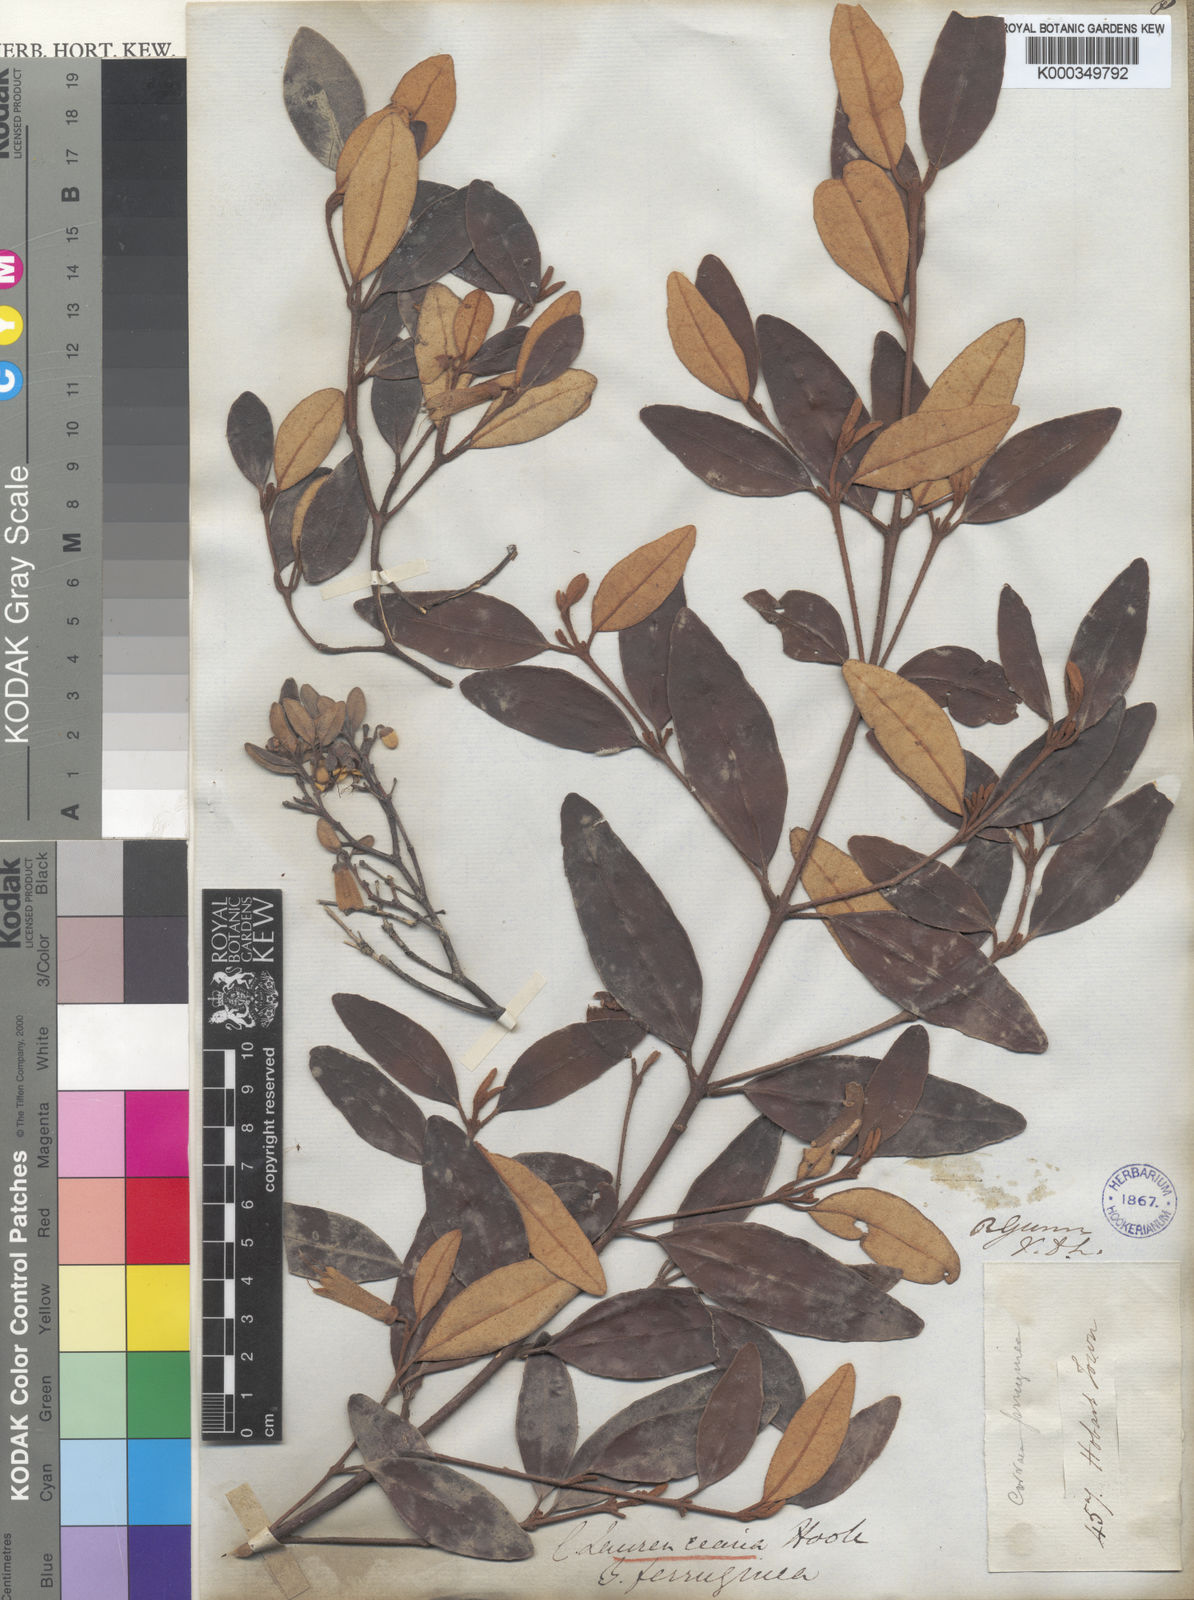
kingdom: Plantae
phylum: Tracheophyta
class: Magnoliopsida
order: Sapindales
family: Rutaceae
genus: Correa
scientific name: Correa lawrenceana
